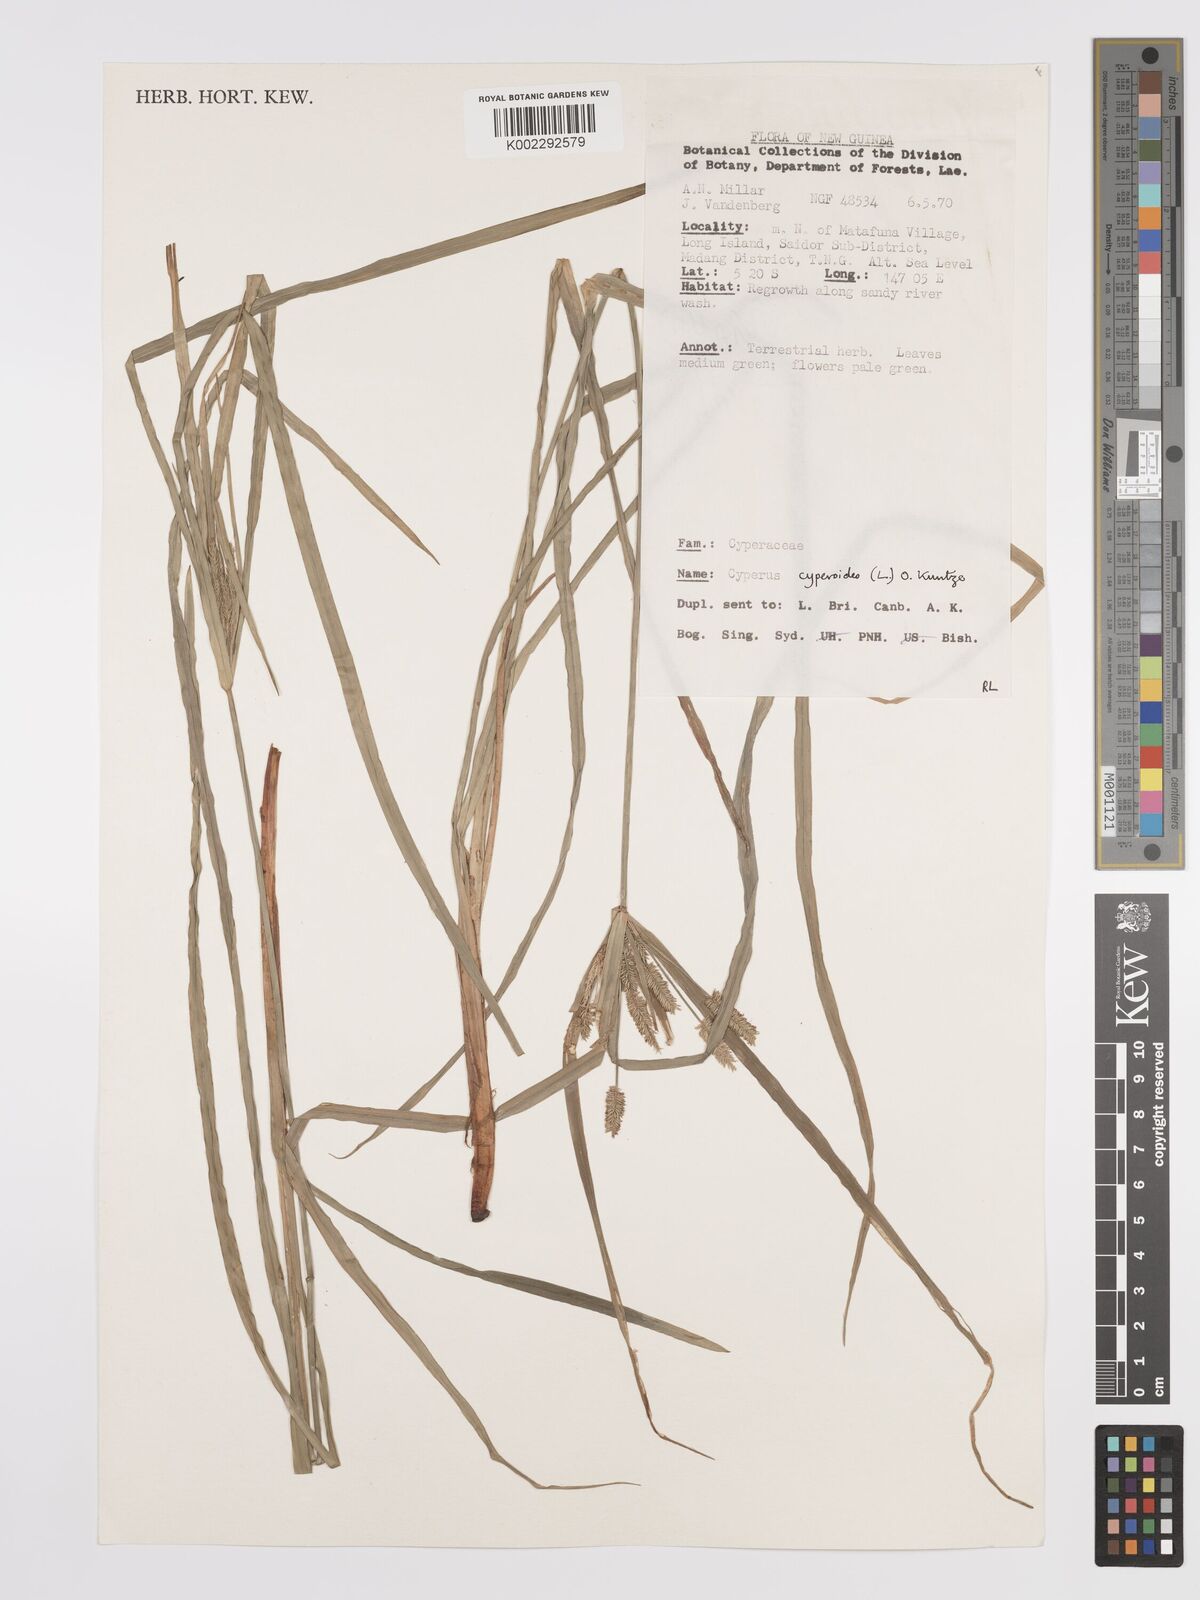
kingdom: Plantae
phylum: Tracheophyta
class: Liliopsida
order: Poales
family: Cyperaceae
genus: Cyperus
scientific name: Cyperus cyperoides
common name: Pacific island flat sedge
